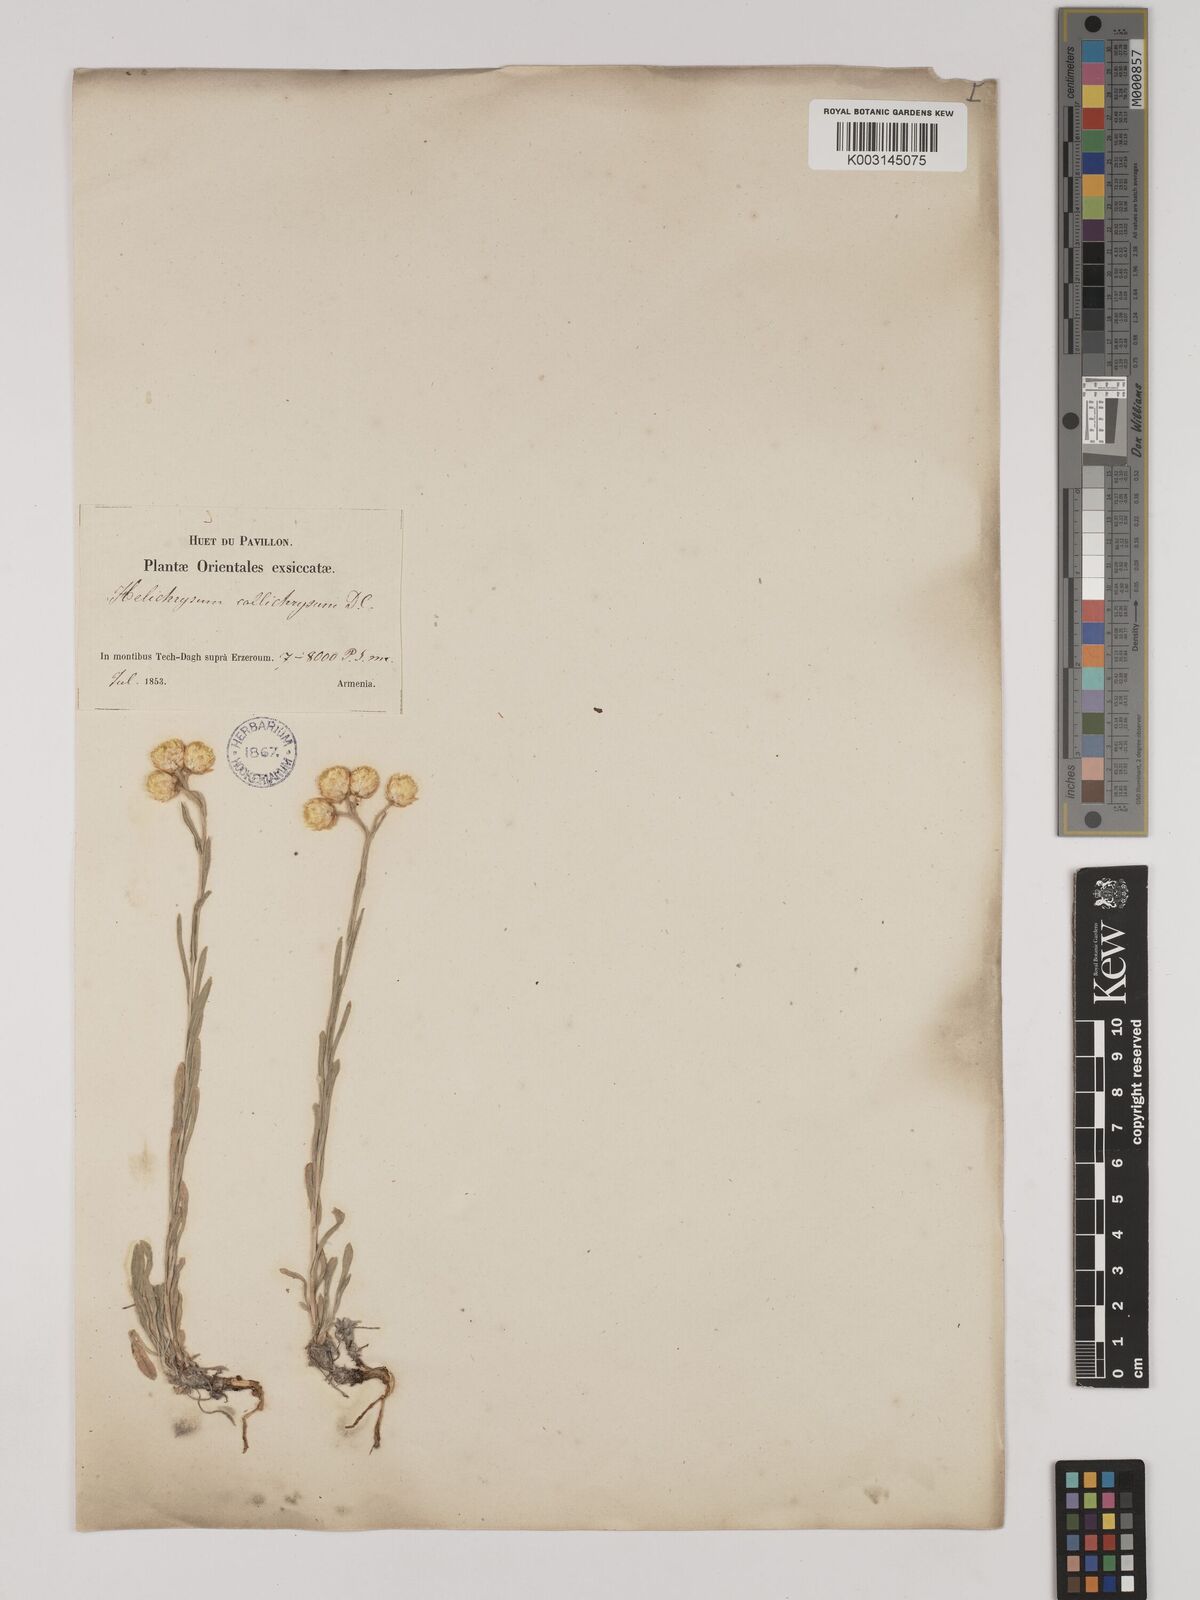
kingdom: Plantae
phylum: Tracheophyta
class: Magnoliopsida
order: Asterales
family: Asteraceae
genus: Helichrysum
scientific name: Helichrysum pallasii
